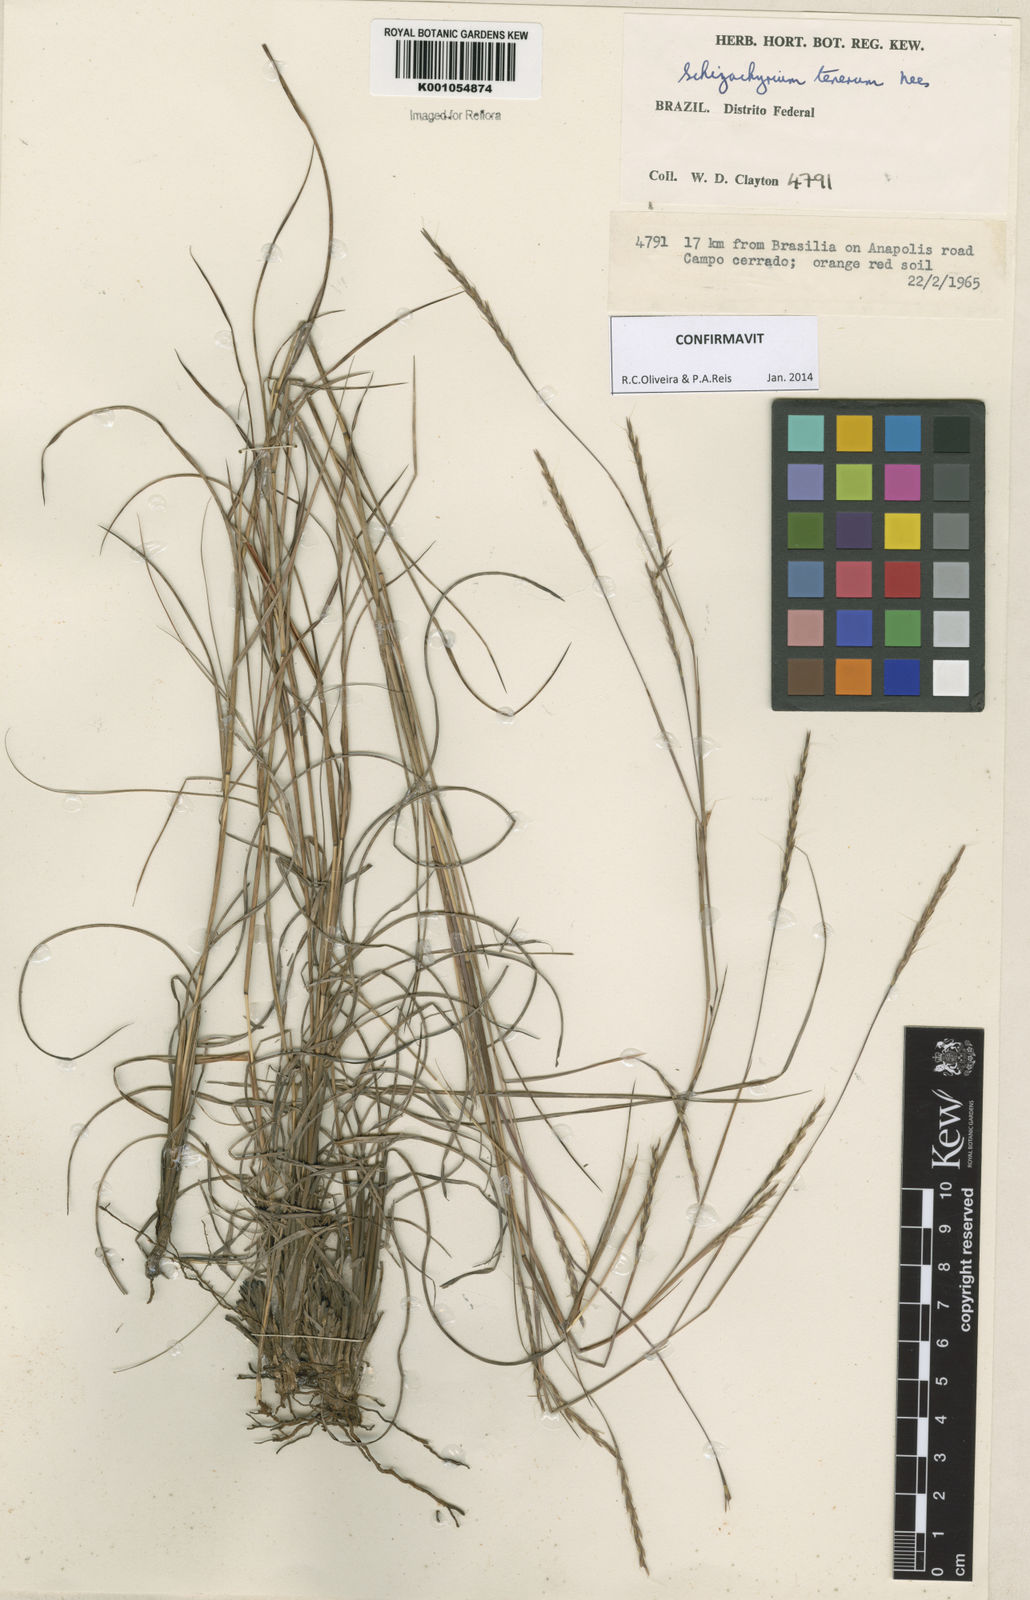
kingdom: Plantae
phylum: Tracheophyta
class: Liliopsida
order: Poales
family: Poaceae
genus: Andropogon
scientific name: Andropogon tener
